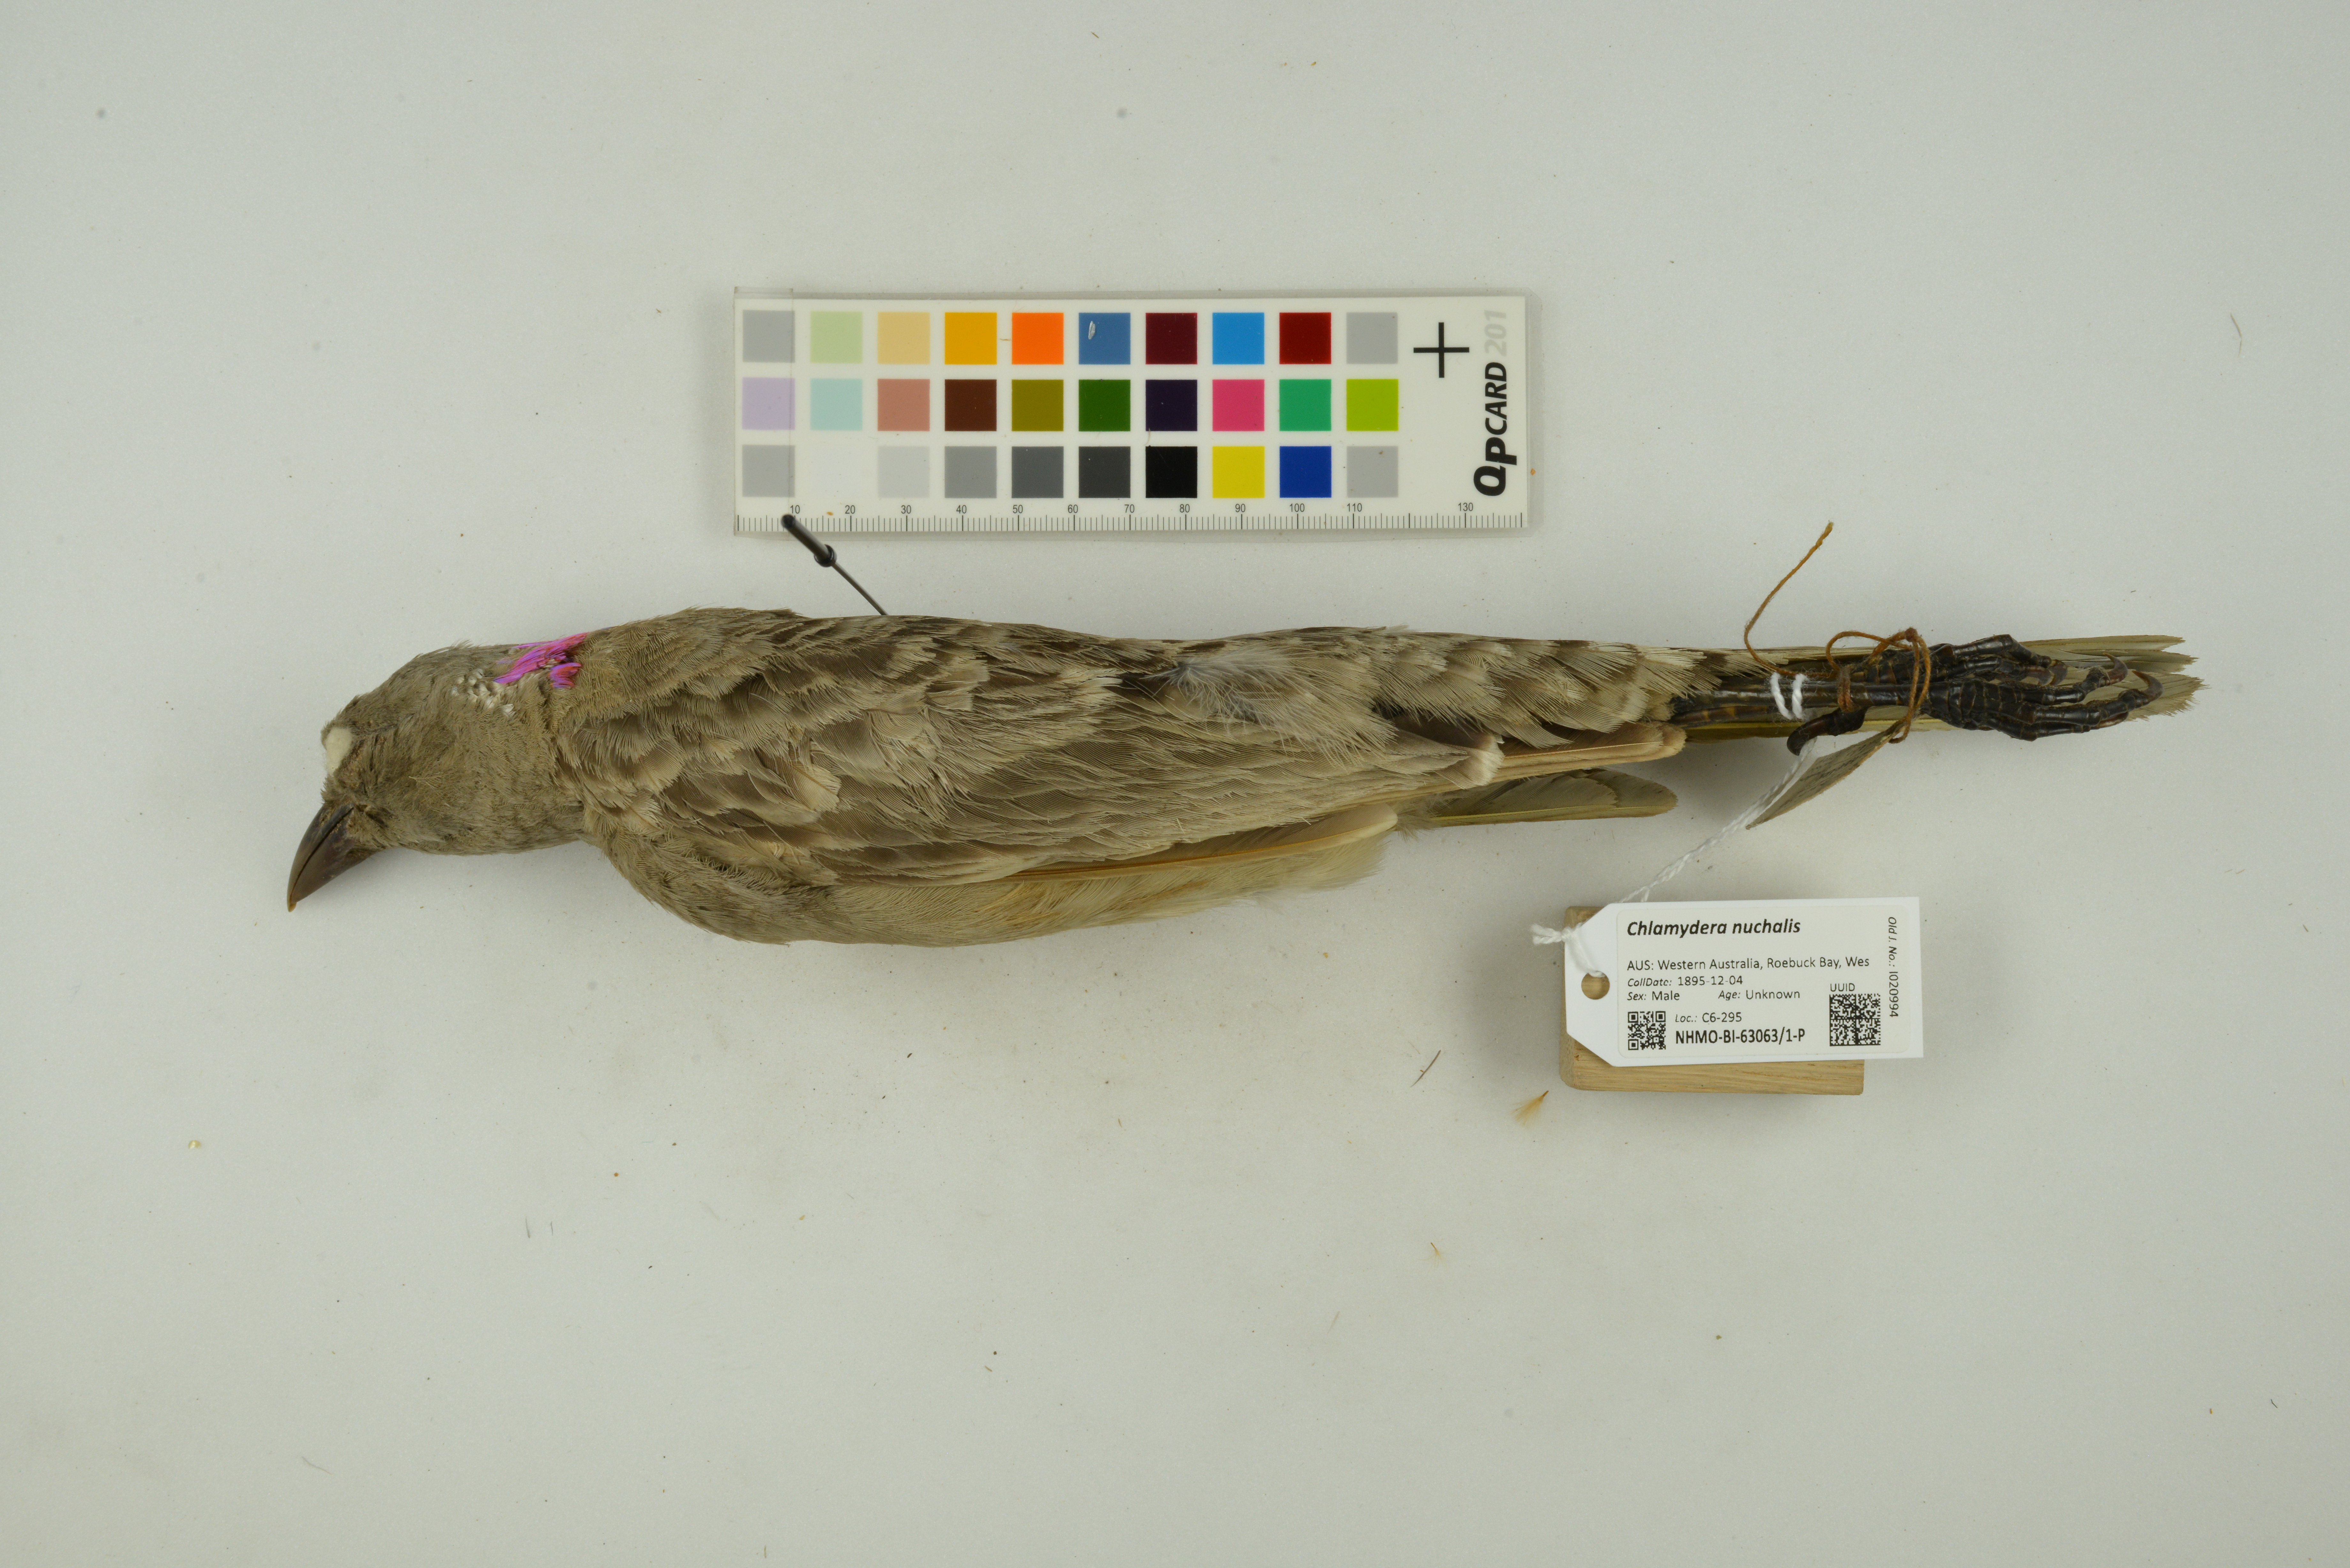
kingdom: Animalia
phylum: Chordata
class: Aves
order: Passeriformes
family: Ptilonorhynchidae
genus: Chlamydera
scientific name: Chlamydera nuchalis
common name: Great bowerbird
